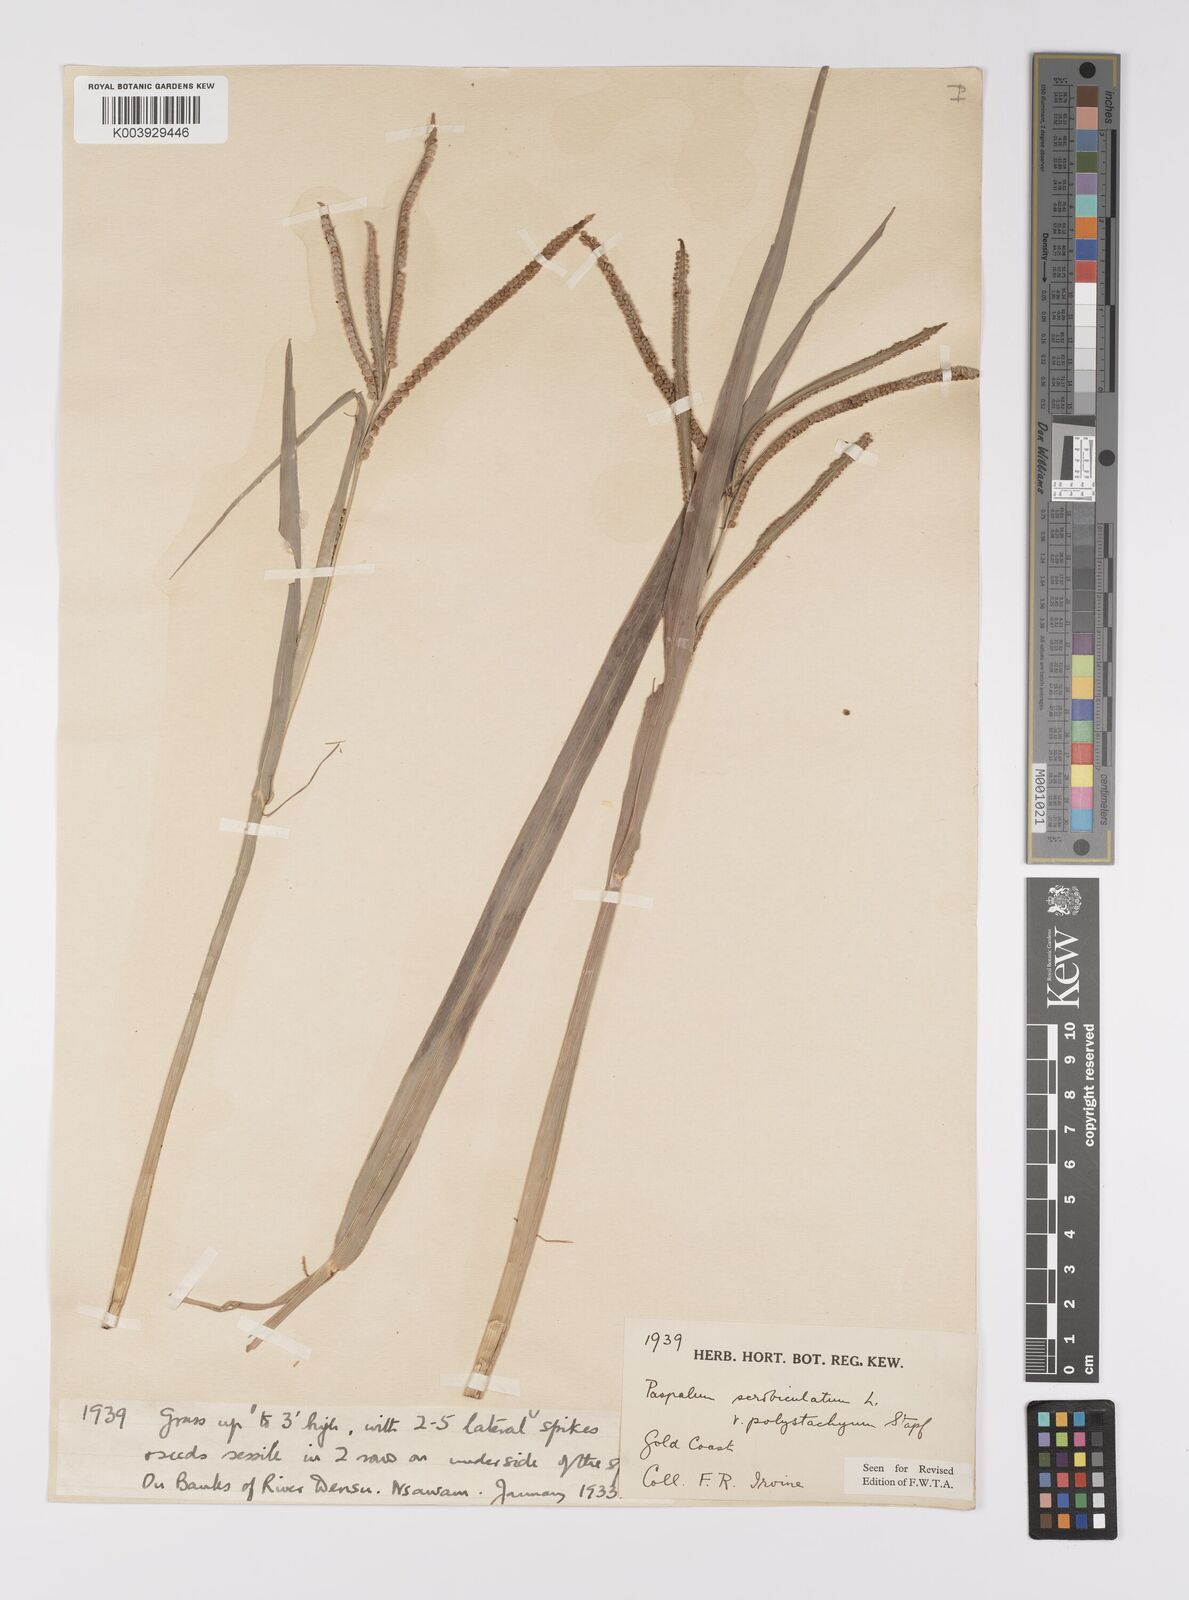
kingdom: Plantae
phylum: Tracheophyta
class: Liliopsida
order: Poales
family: Poaceae
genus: Paspalum
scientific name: Paspalum scrobiculatum
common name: Kodo millet
